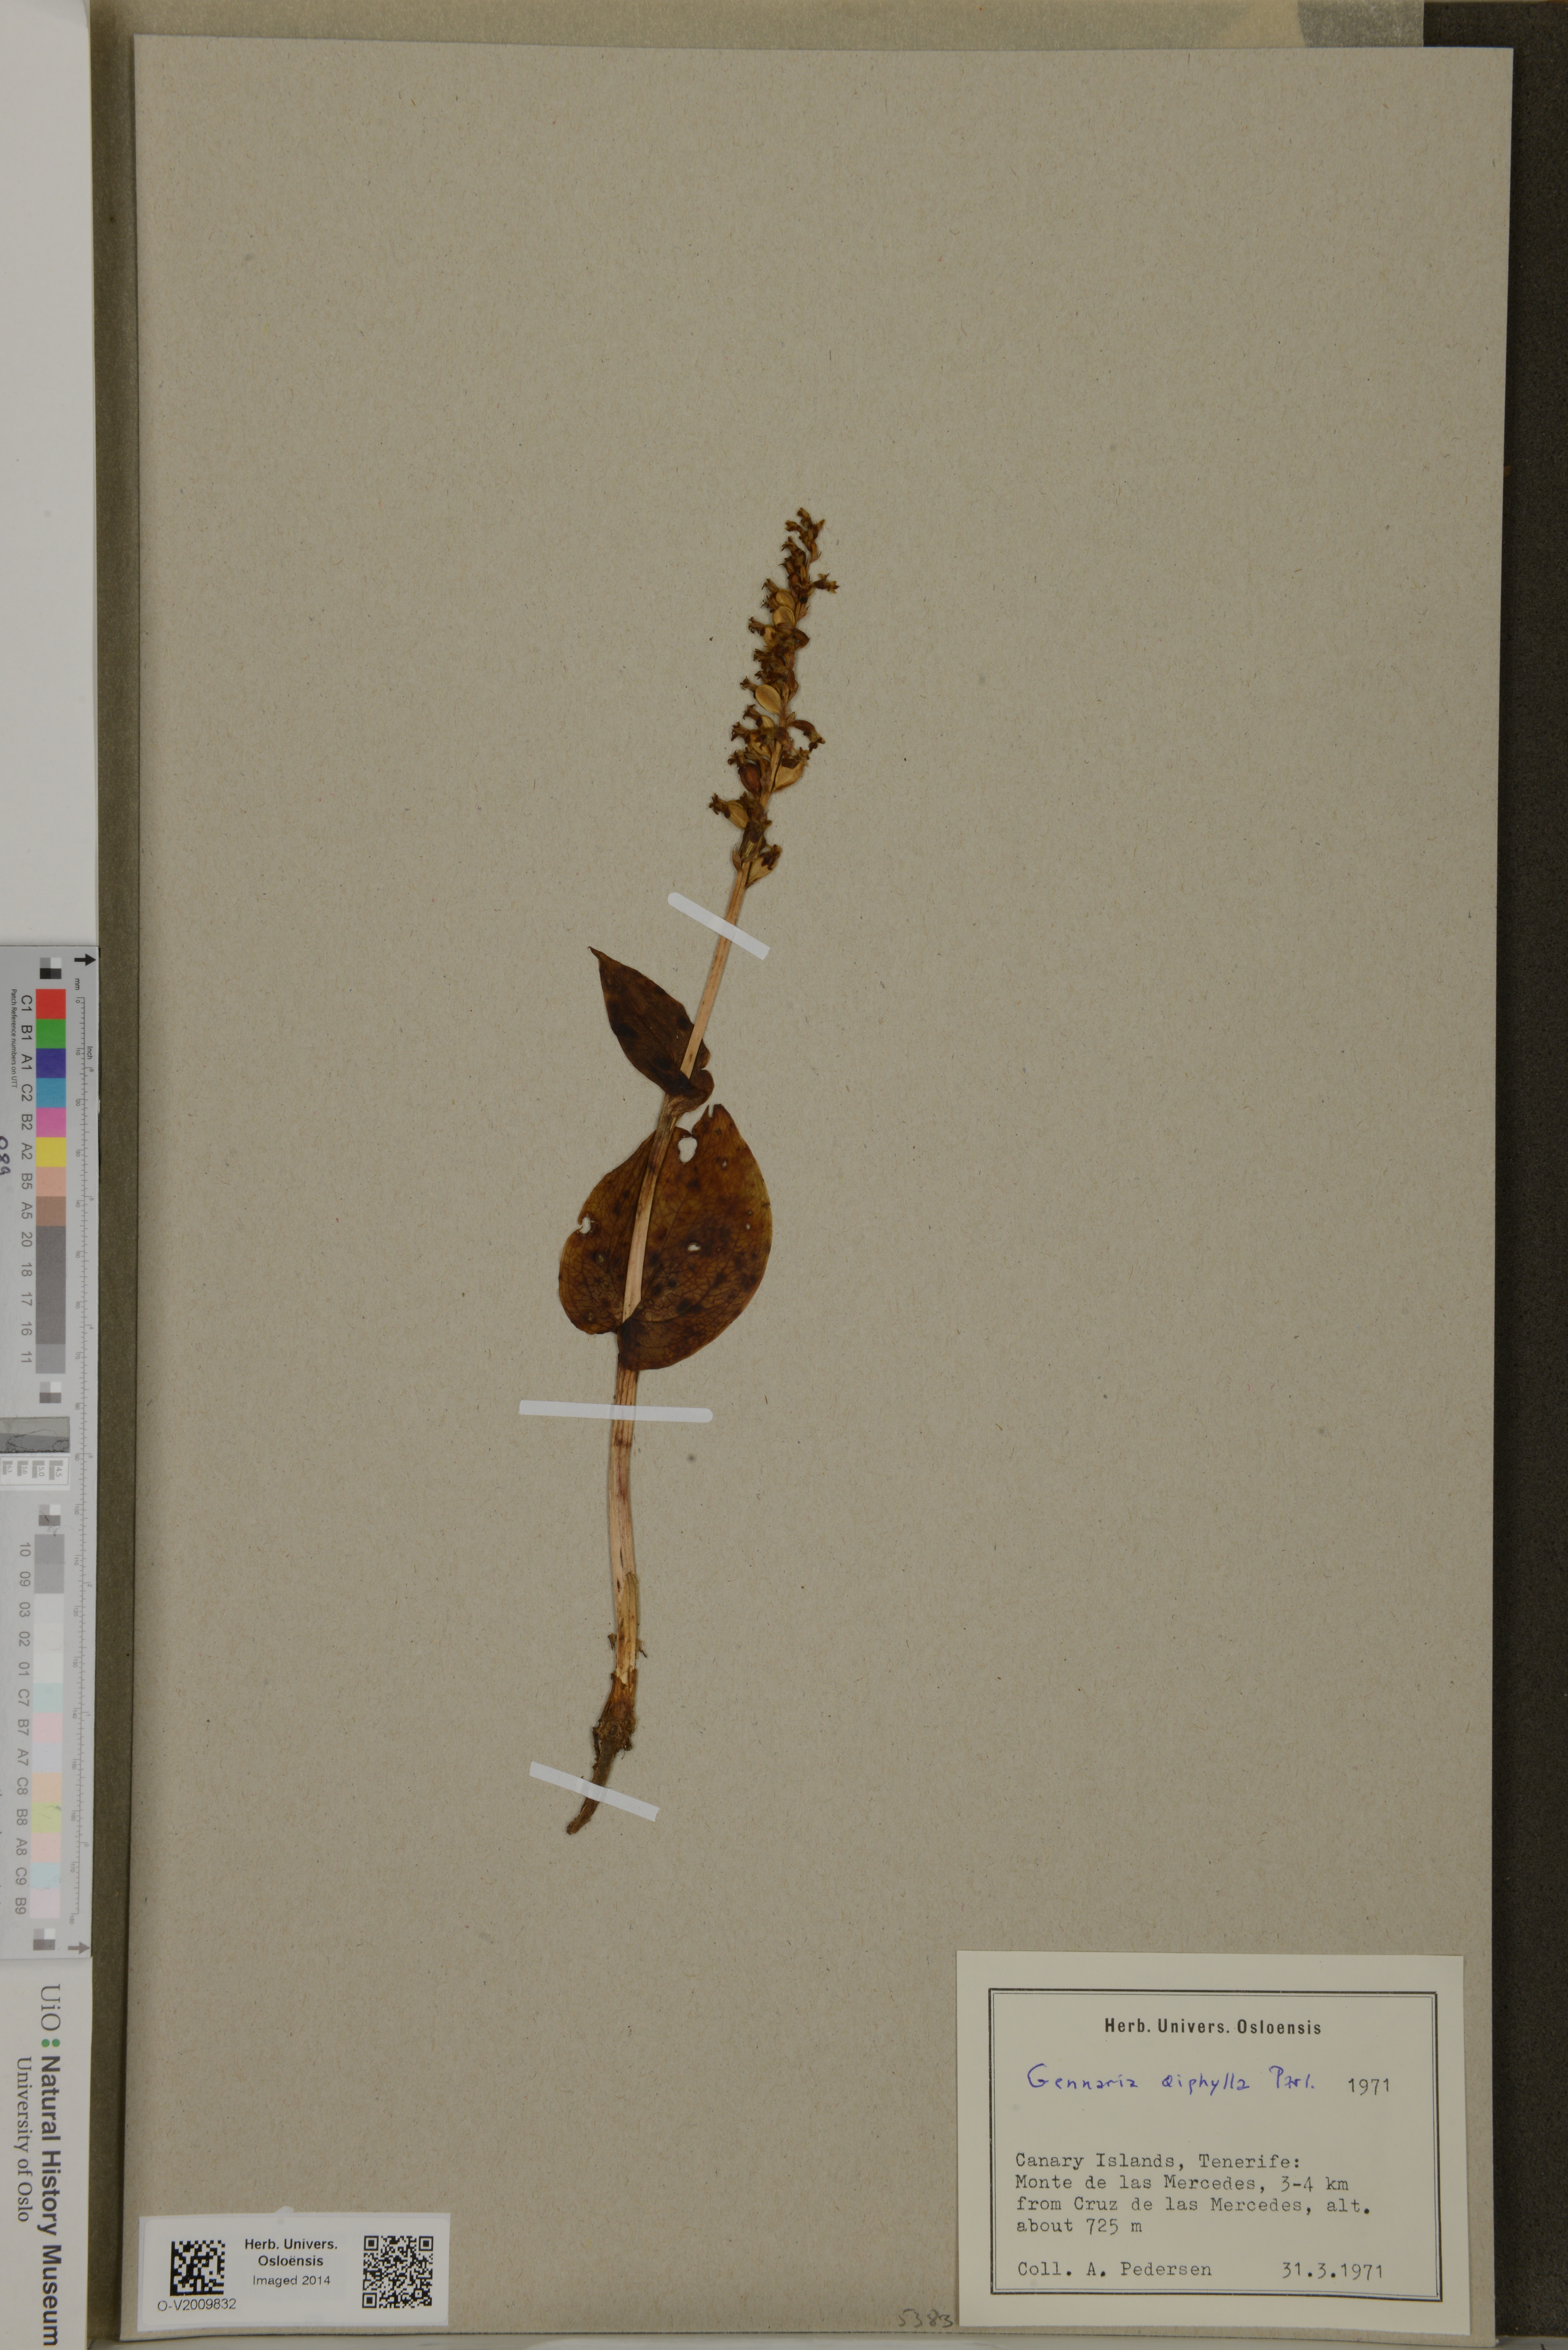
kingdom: Plantae
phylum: Tracheophyta
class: Liliopsida
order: Asparagales
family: Orchidaceae
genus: Gennaria
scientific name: Gennaria diphylla
